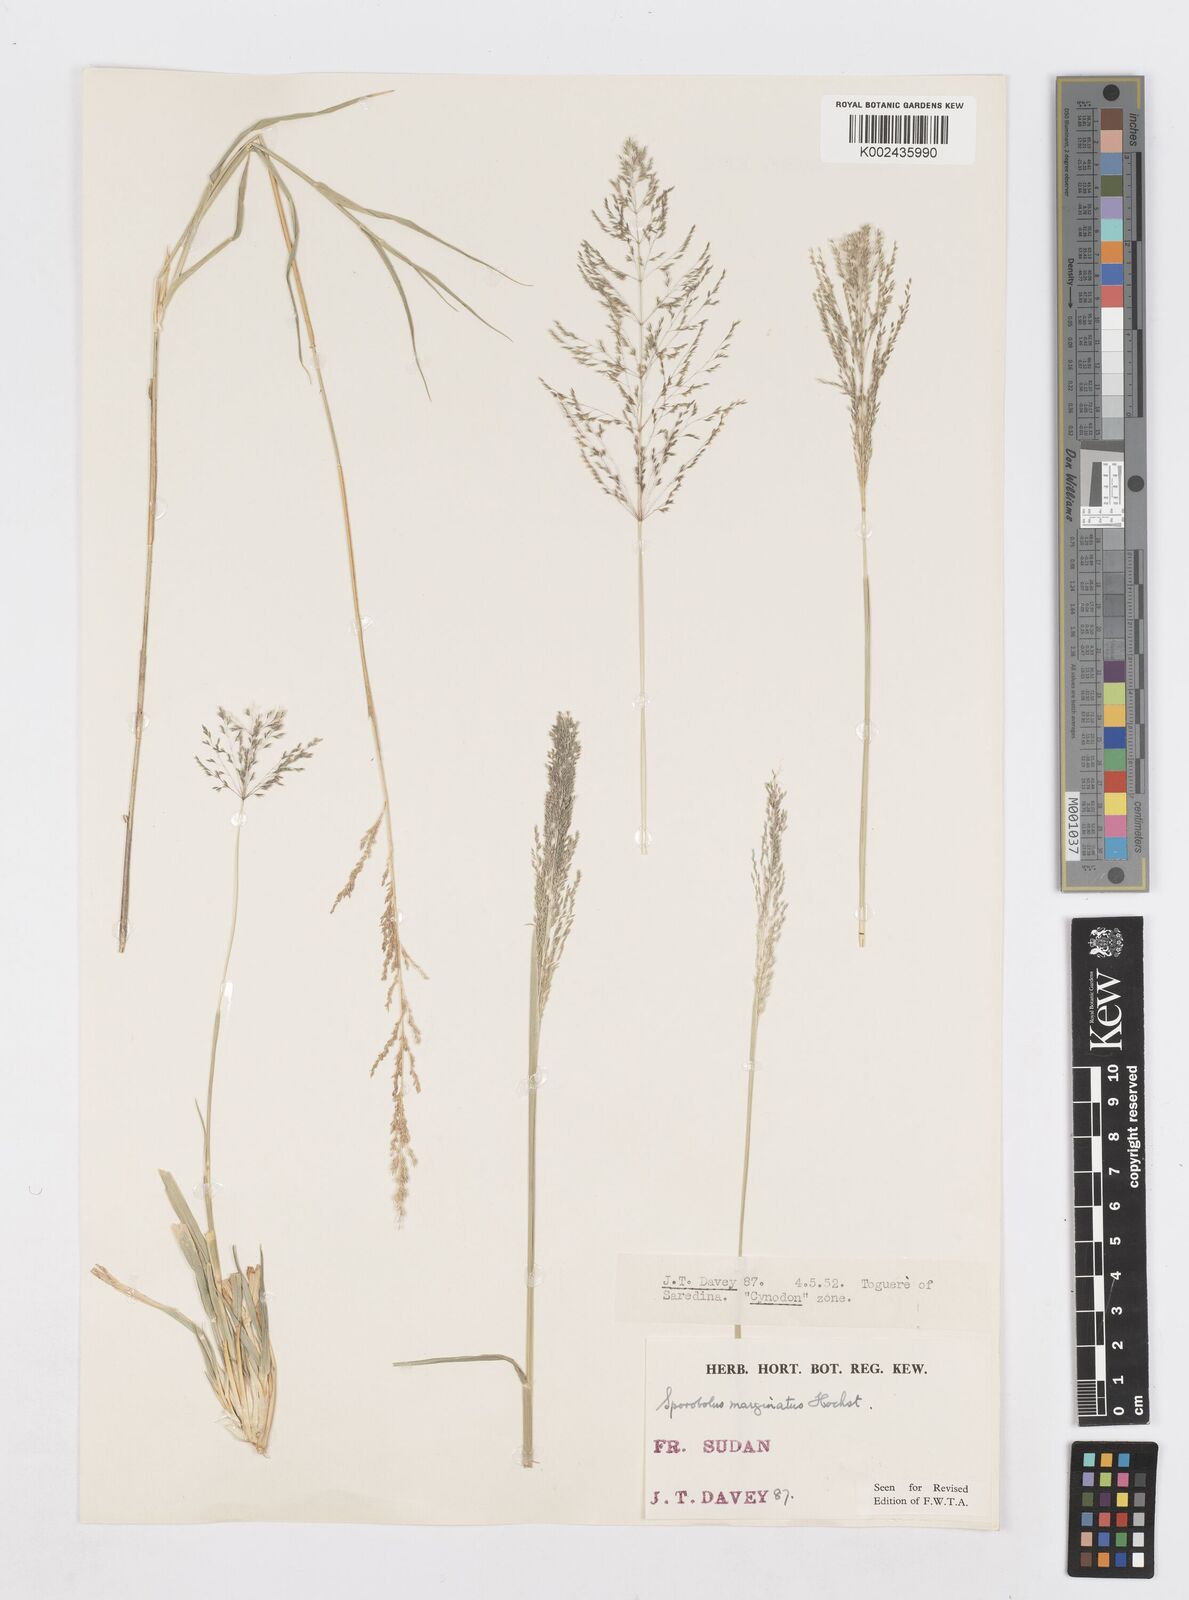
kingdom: Plantae
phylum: Tracheophyta
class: Liliopsida
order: Poales
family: Poaceae
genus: Sporobolus
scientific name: Sporobolus ioclados
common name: Pan dropseed
